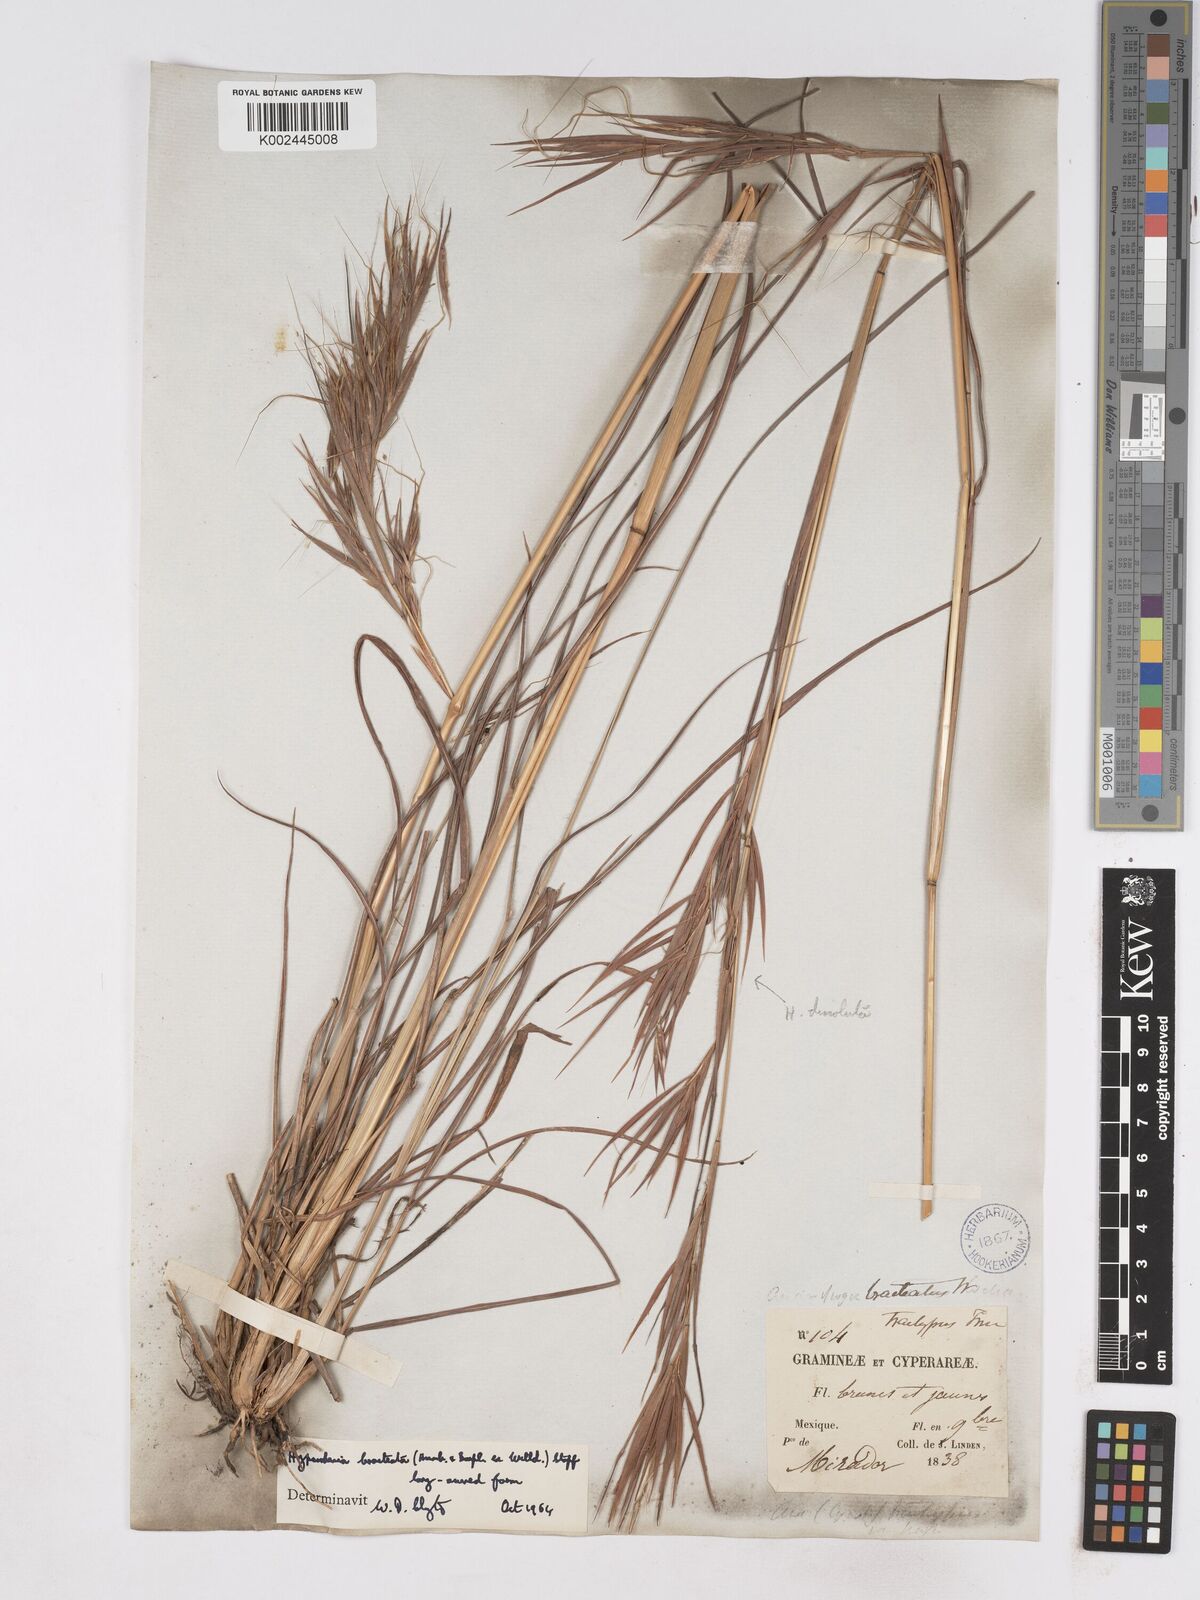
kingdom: Plantae
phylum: Tracheophyta
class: Liliopsida
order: Poales
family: Poaceae
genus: Hyparrhenia
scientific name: Hyparrhenia bracteata
